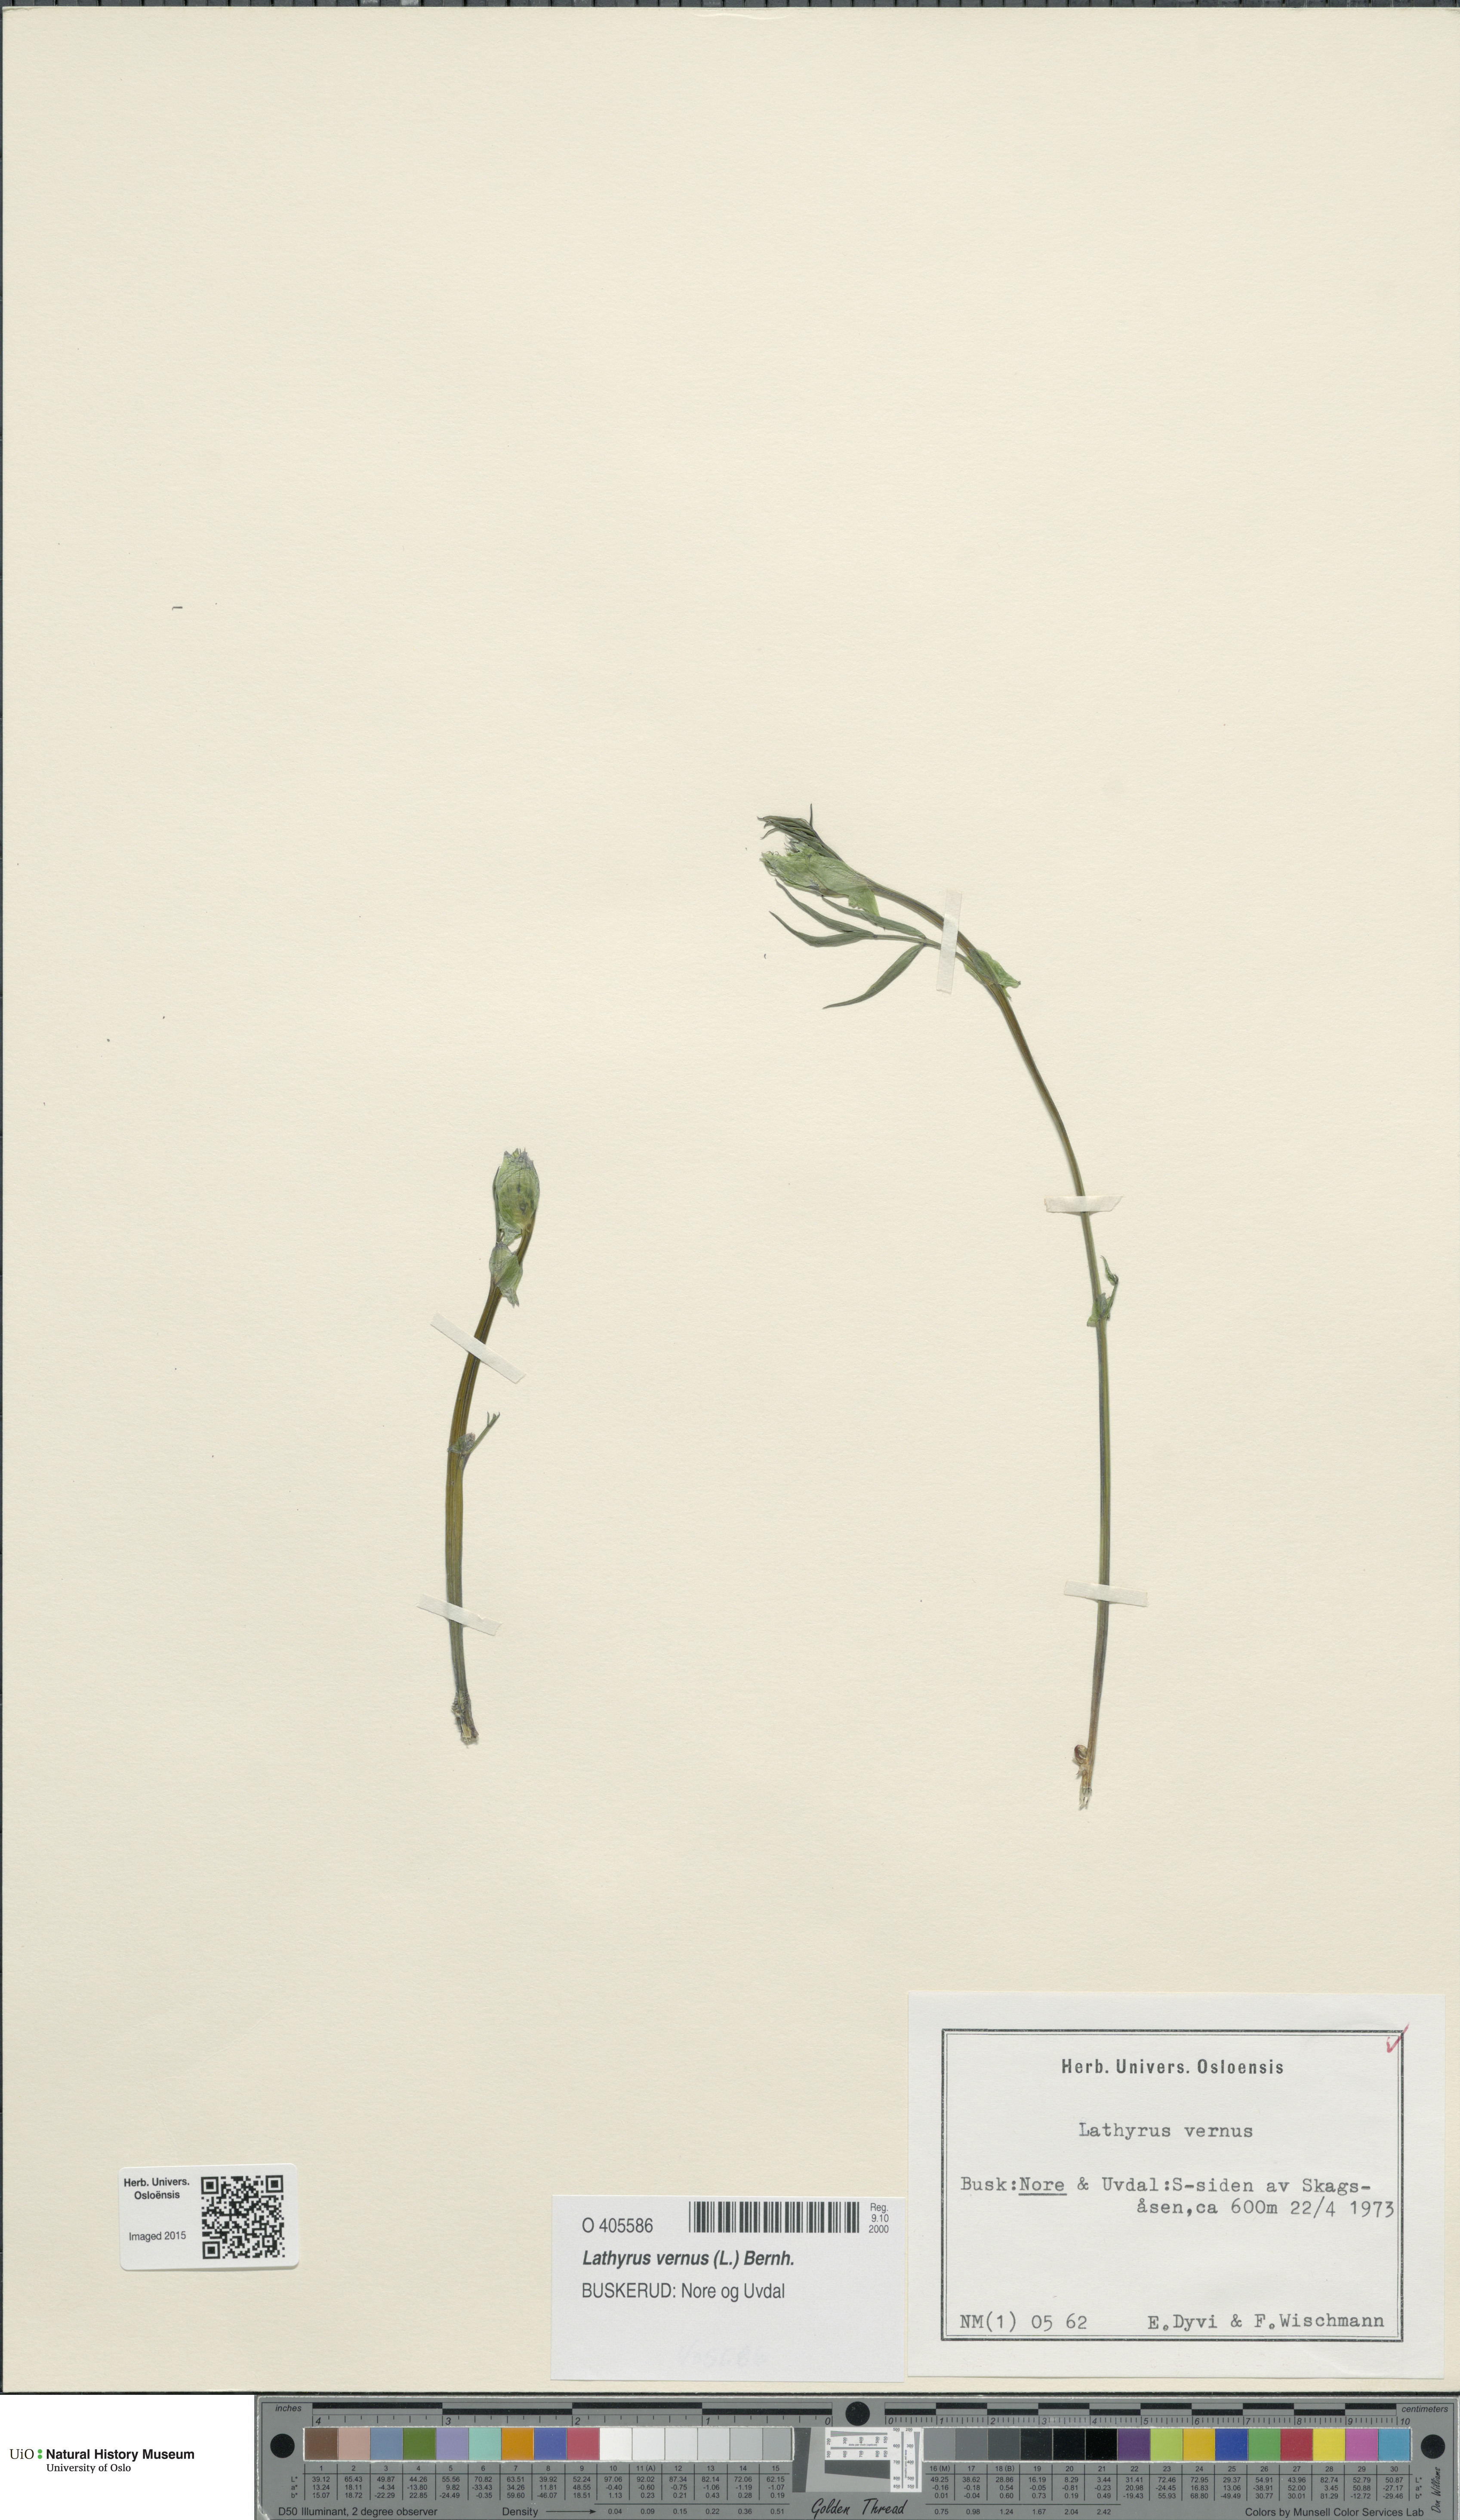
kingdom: Plantae
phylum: Tracheophyta
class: Magnoliopsida
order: Fabales
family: Fabaceae
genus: Lathyrus
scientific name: Lathyrus vernus
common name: Spring pea
